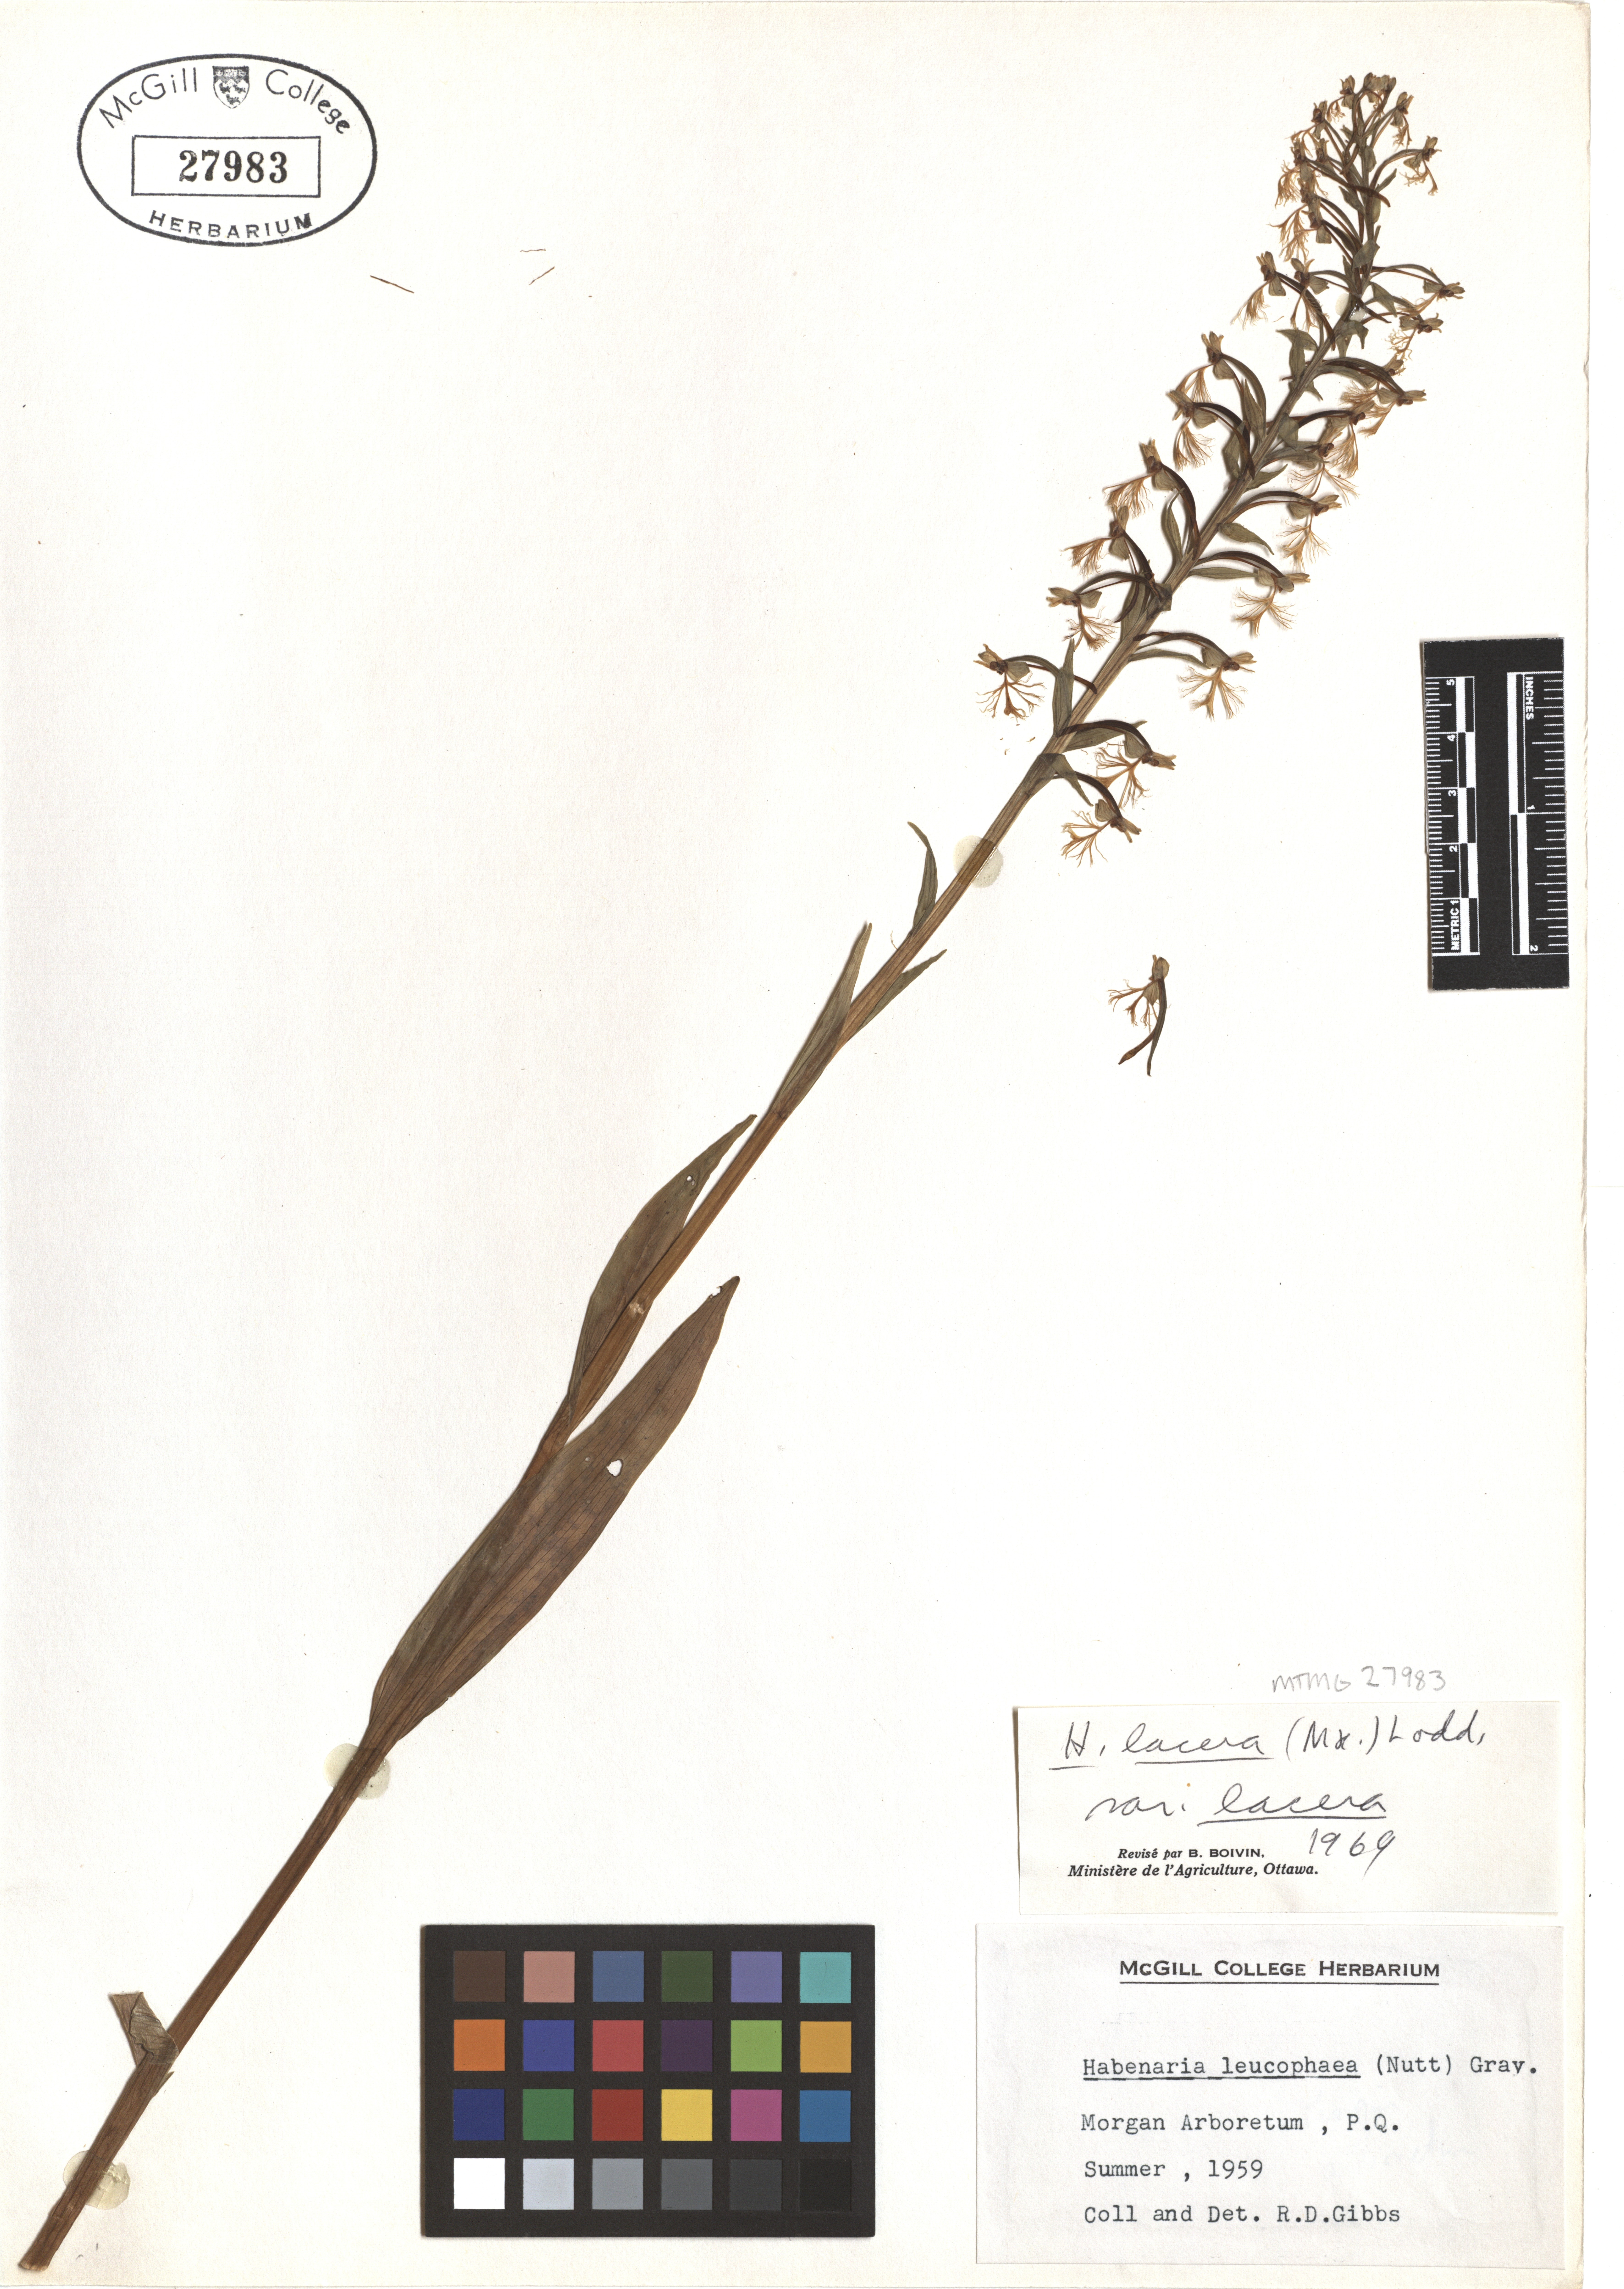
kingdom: Plantae
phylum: Tracheophyta
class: Liliopsida
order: Asparagales
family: Orchidaceae
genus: Platanthera
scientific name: Platanthera lacera
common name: Green fringed orchid
